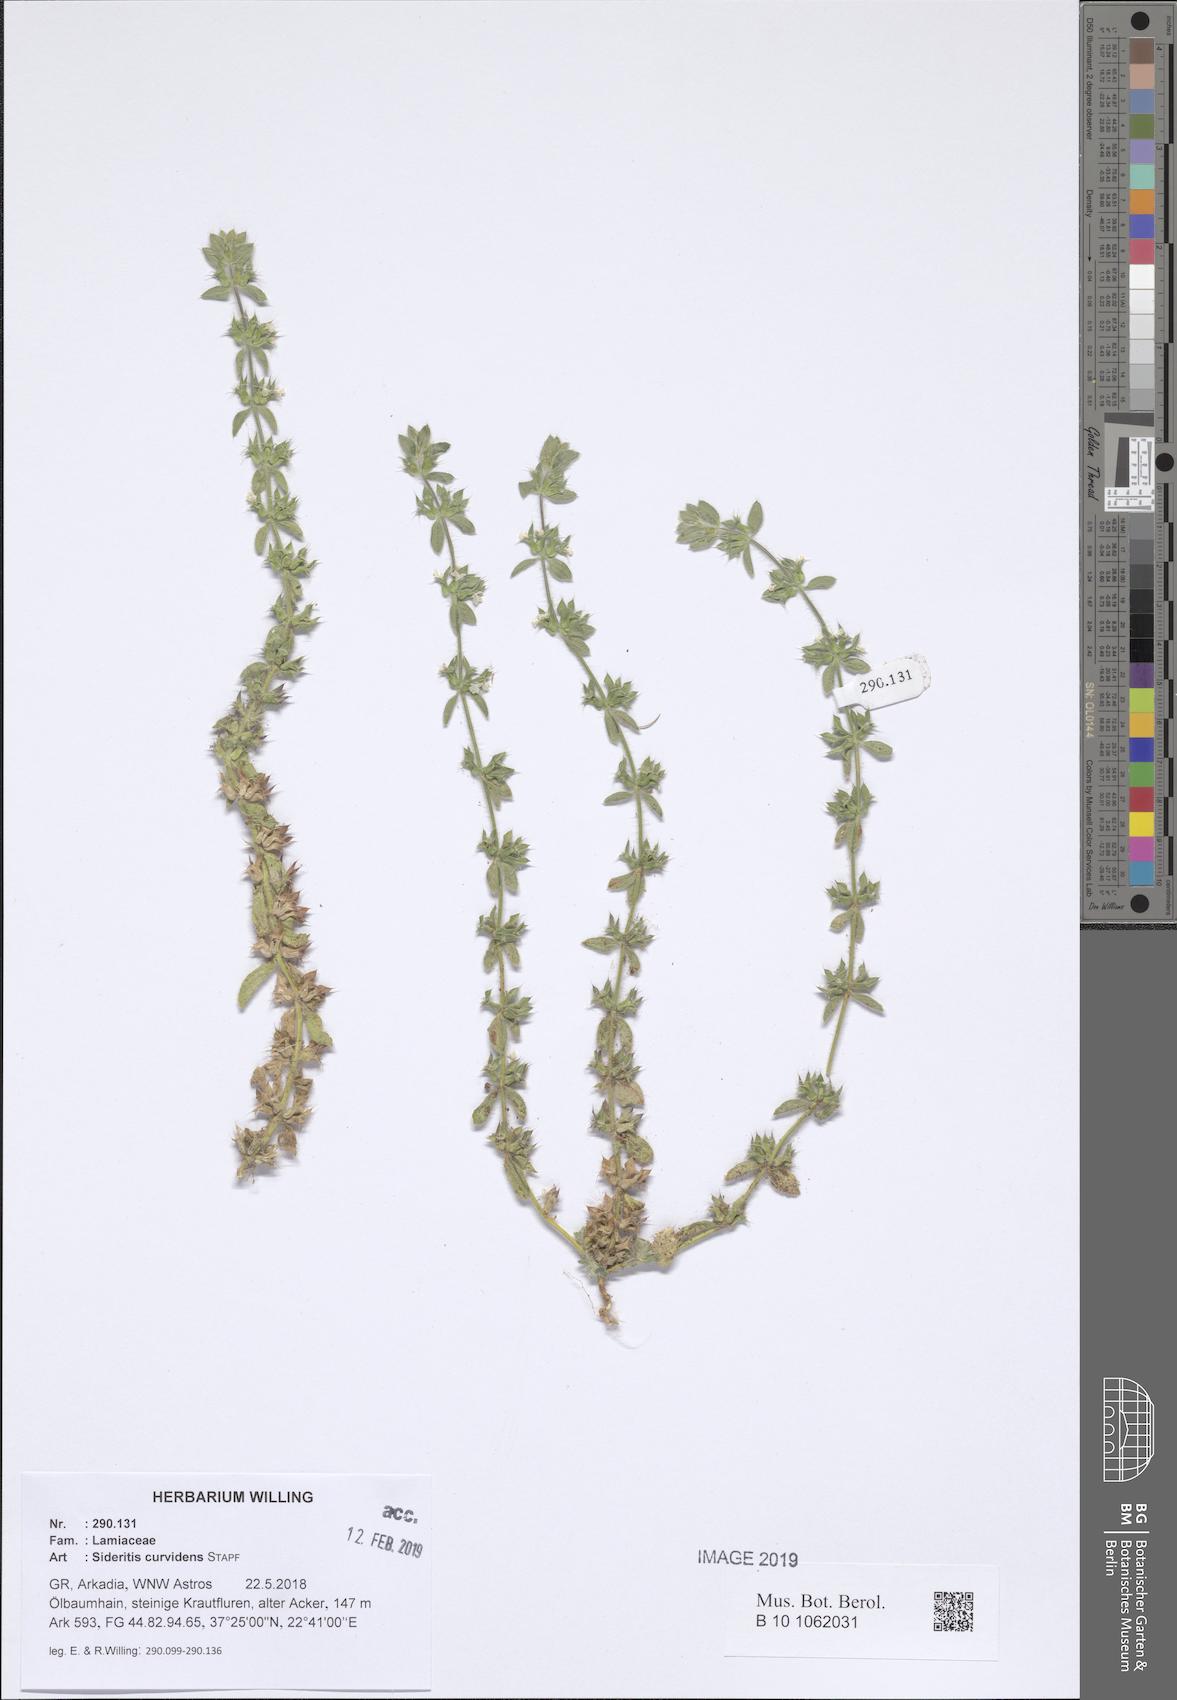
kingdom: Plantae
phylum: Tracheophyta
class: Magnoliopsida
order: Lamiales
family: Lamiaceae
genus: Sideritis
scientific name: Sideritis romana
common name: Simplebeak ironwort
